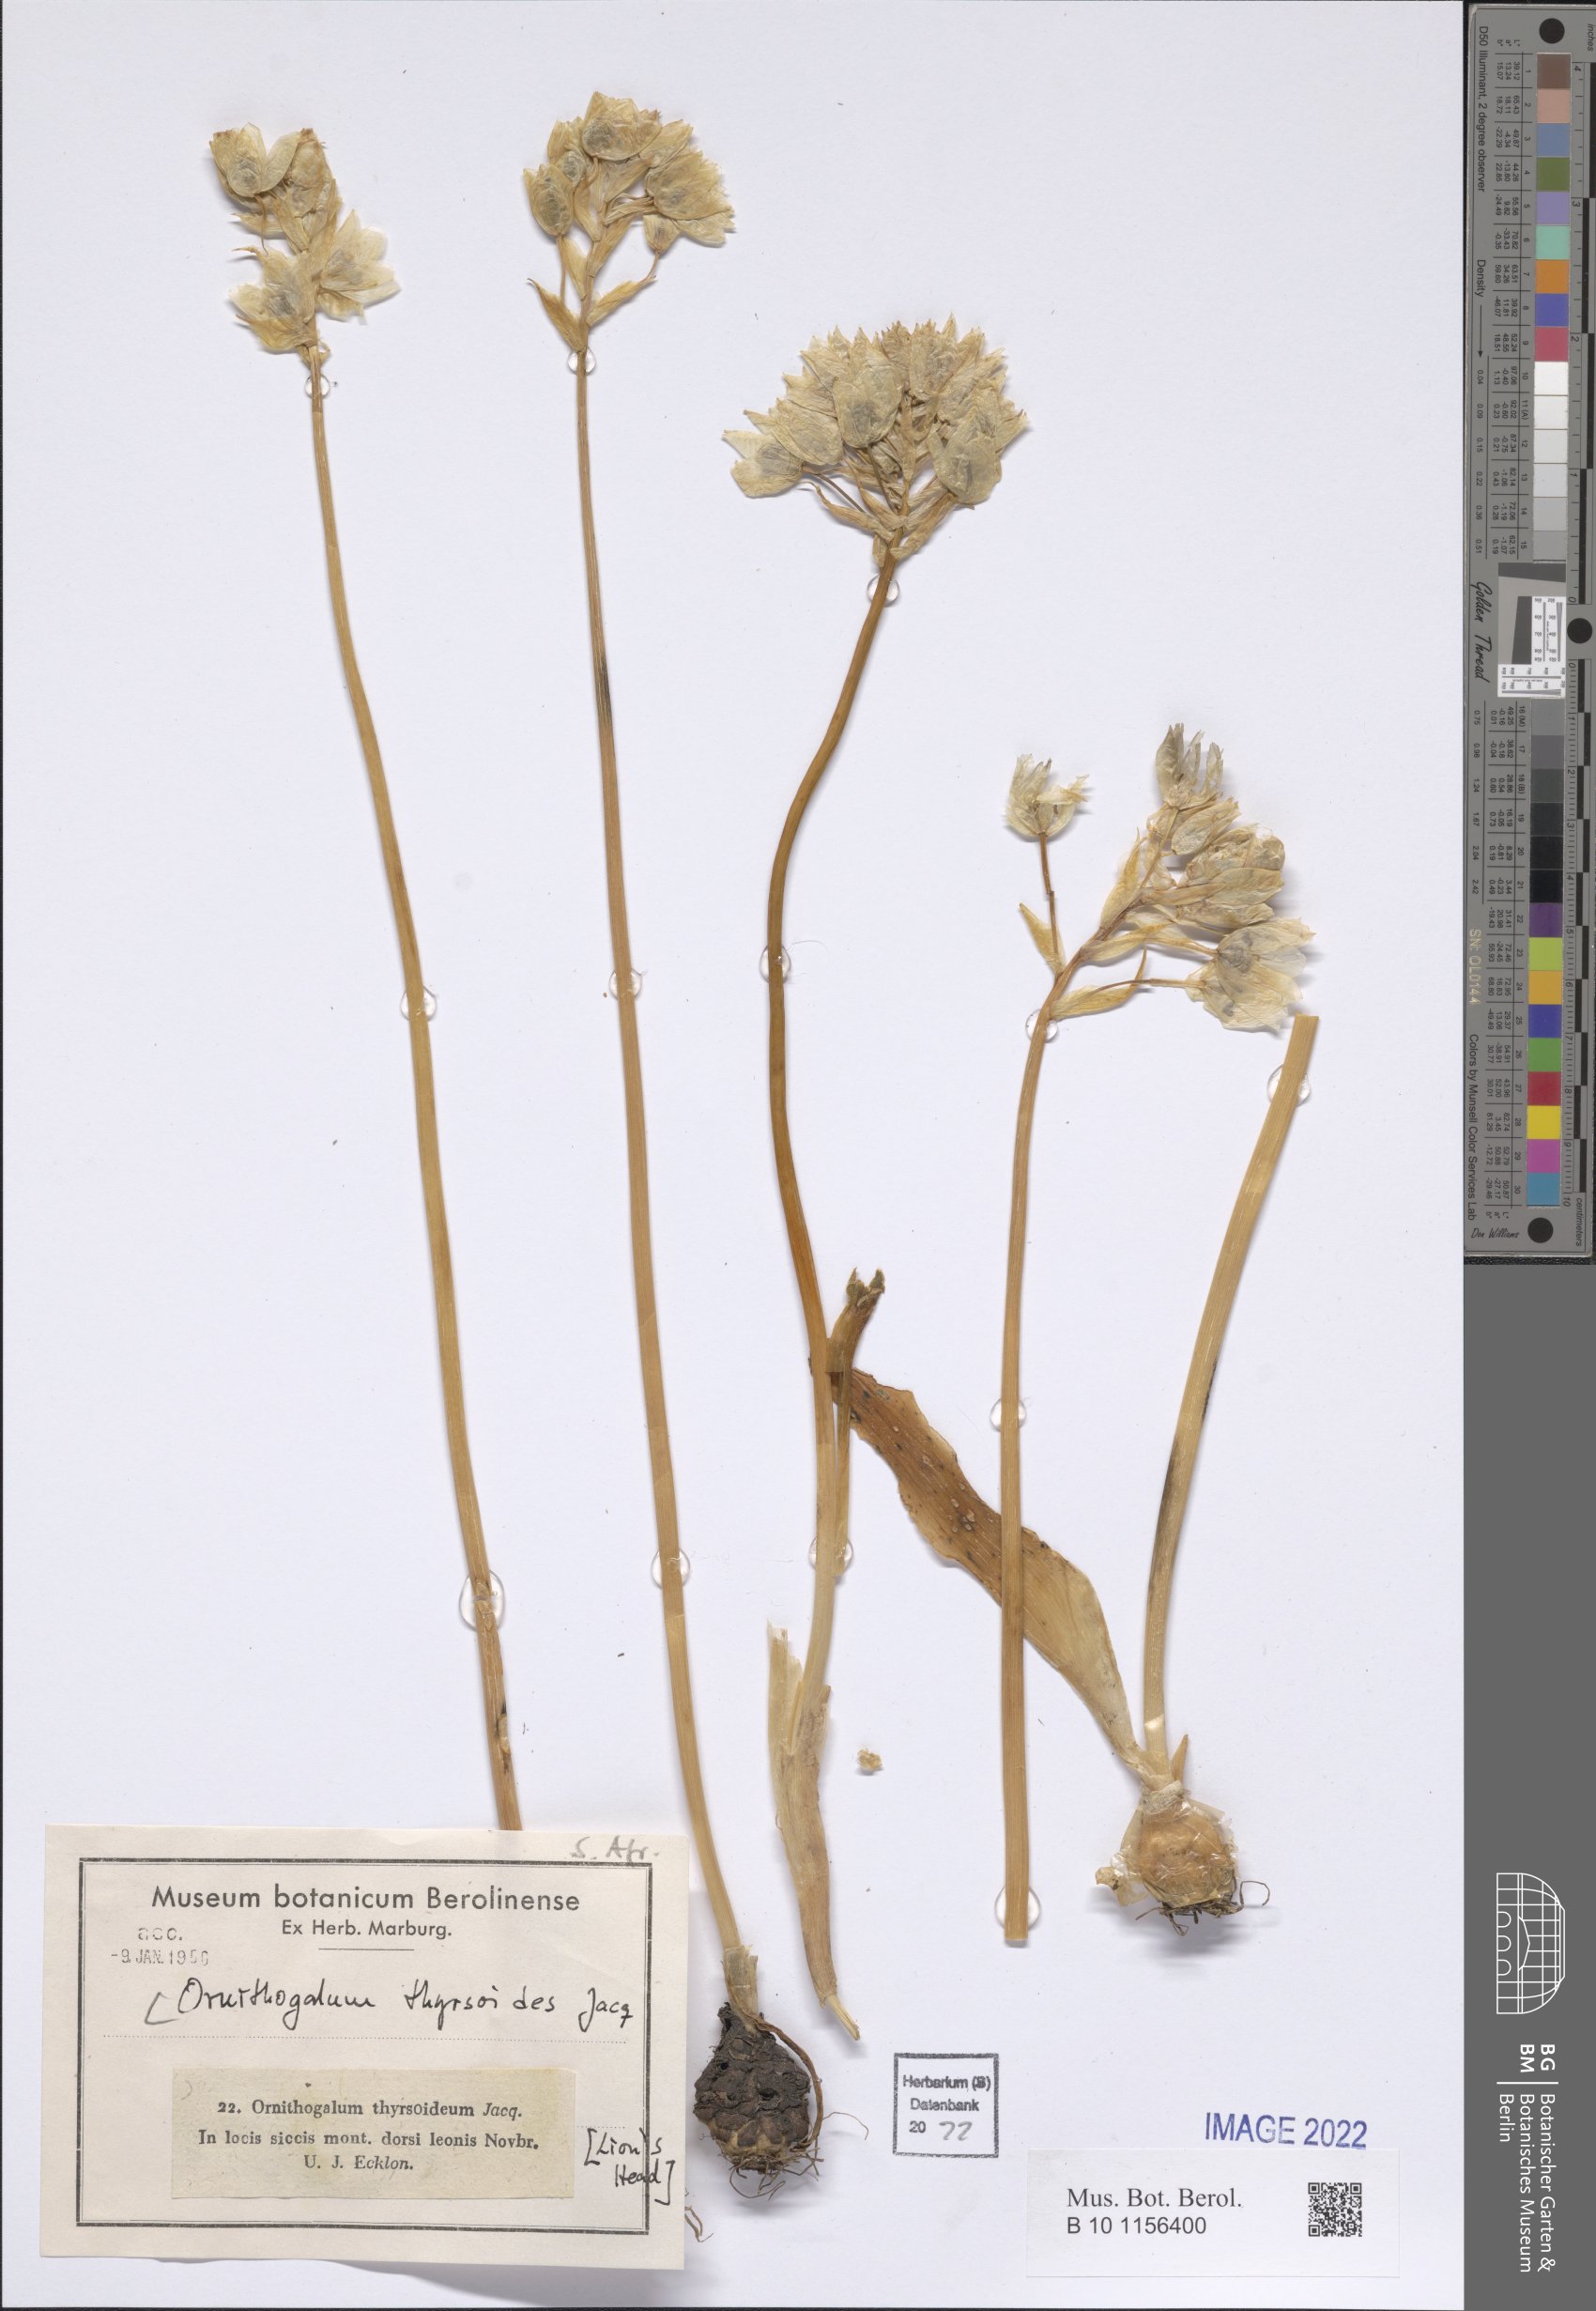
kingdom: Plantae
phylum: Tracheophyta
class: Liliopsida
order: Asparagales
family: Asparagaceae
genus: Ornithogalum
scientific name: Ornithogalum thyrsoides
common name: Chincherinchee
